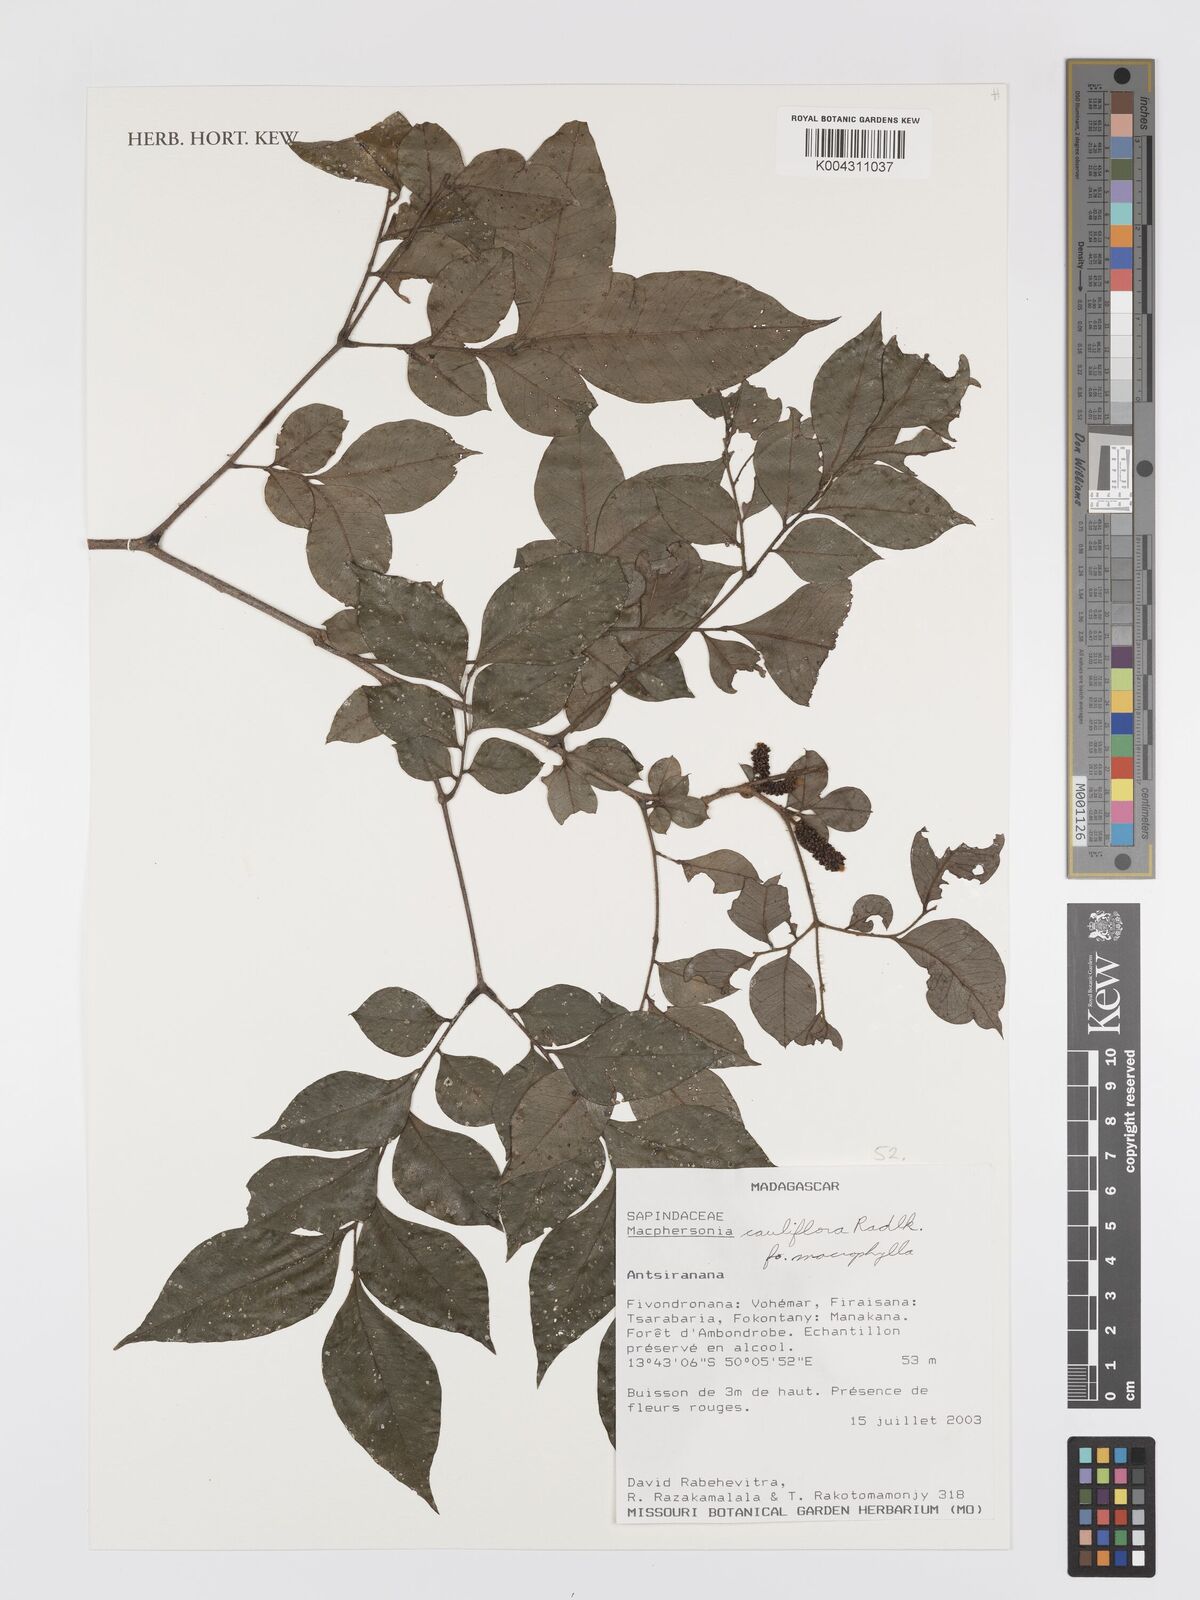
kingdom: Plantae
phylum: Tracheophyta
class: Magnoliopsida
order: Sapindales
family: Sapindaceae
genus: Macphersonia
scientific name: Macphersonia cauliflora
